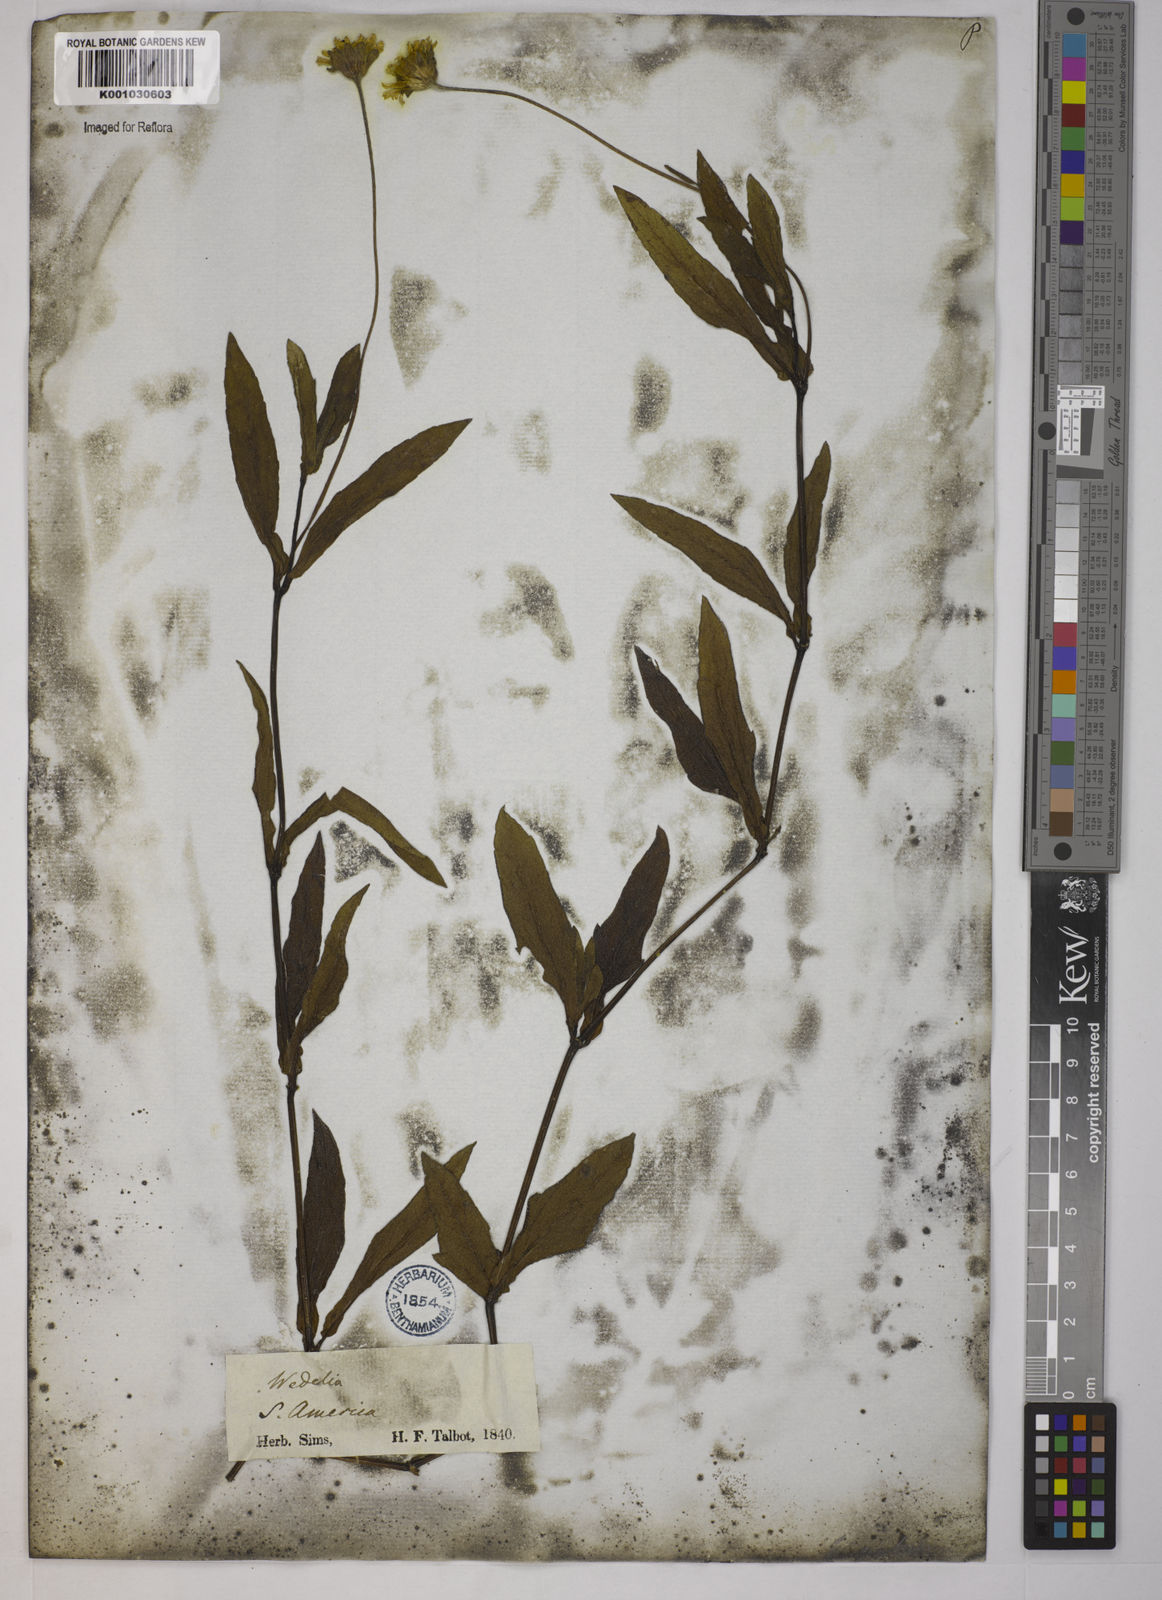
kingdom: Plantae
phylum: Tracheophyta
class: Magnoliopsida
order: Asterales
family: Asteraceae
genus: Sphagneticola
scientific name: Sphagneticola trilobata
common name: Bay biscayne creeping-oxeye
